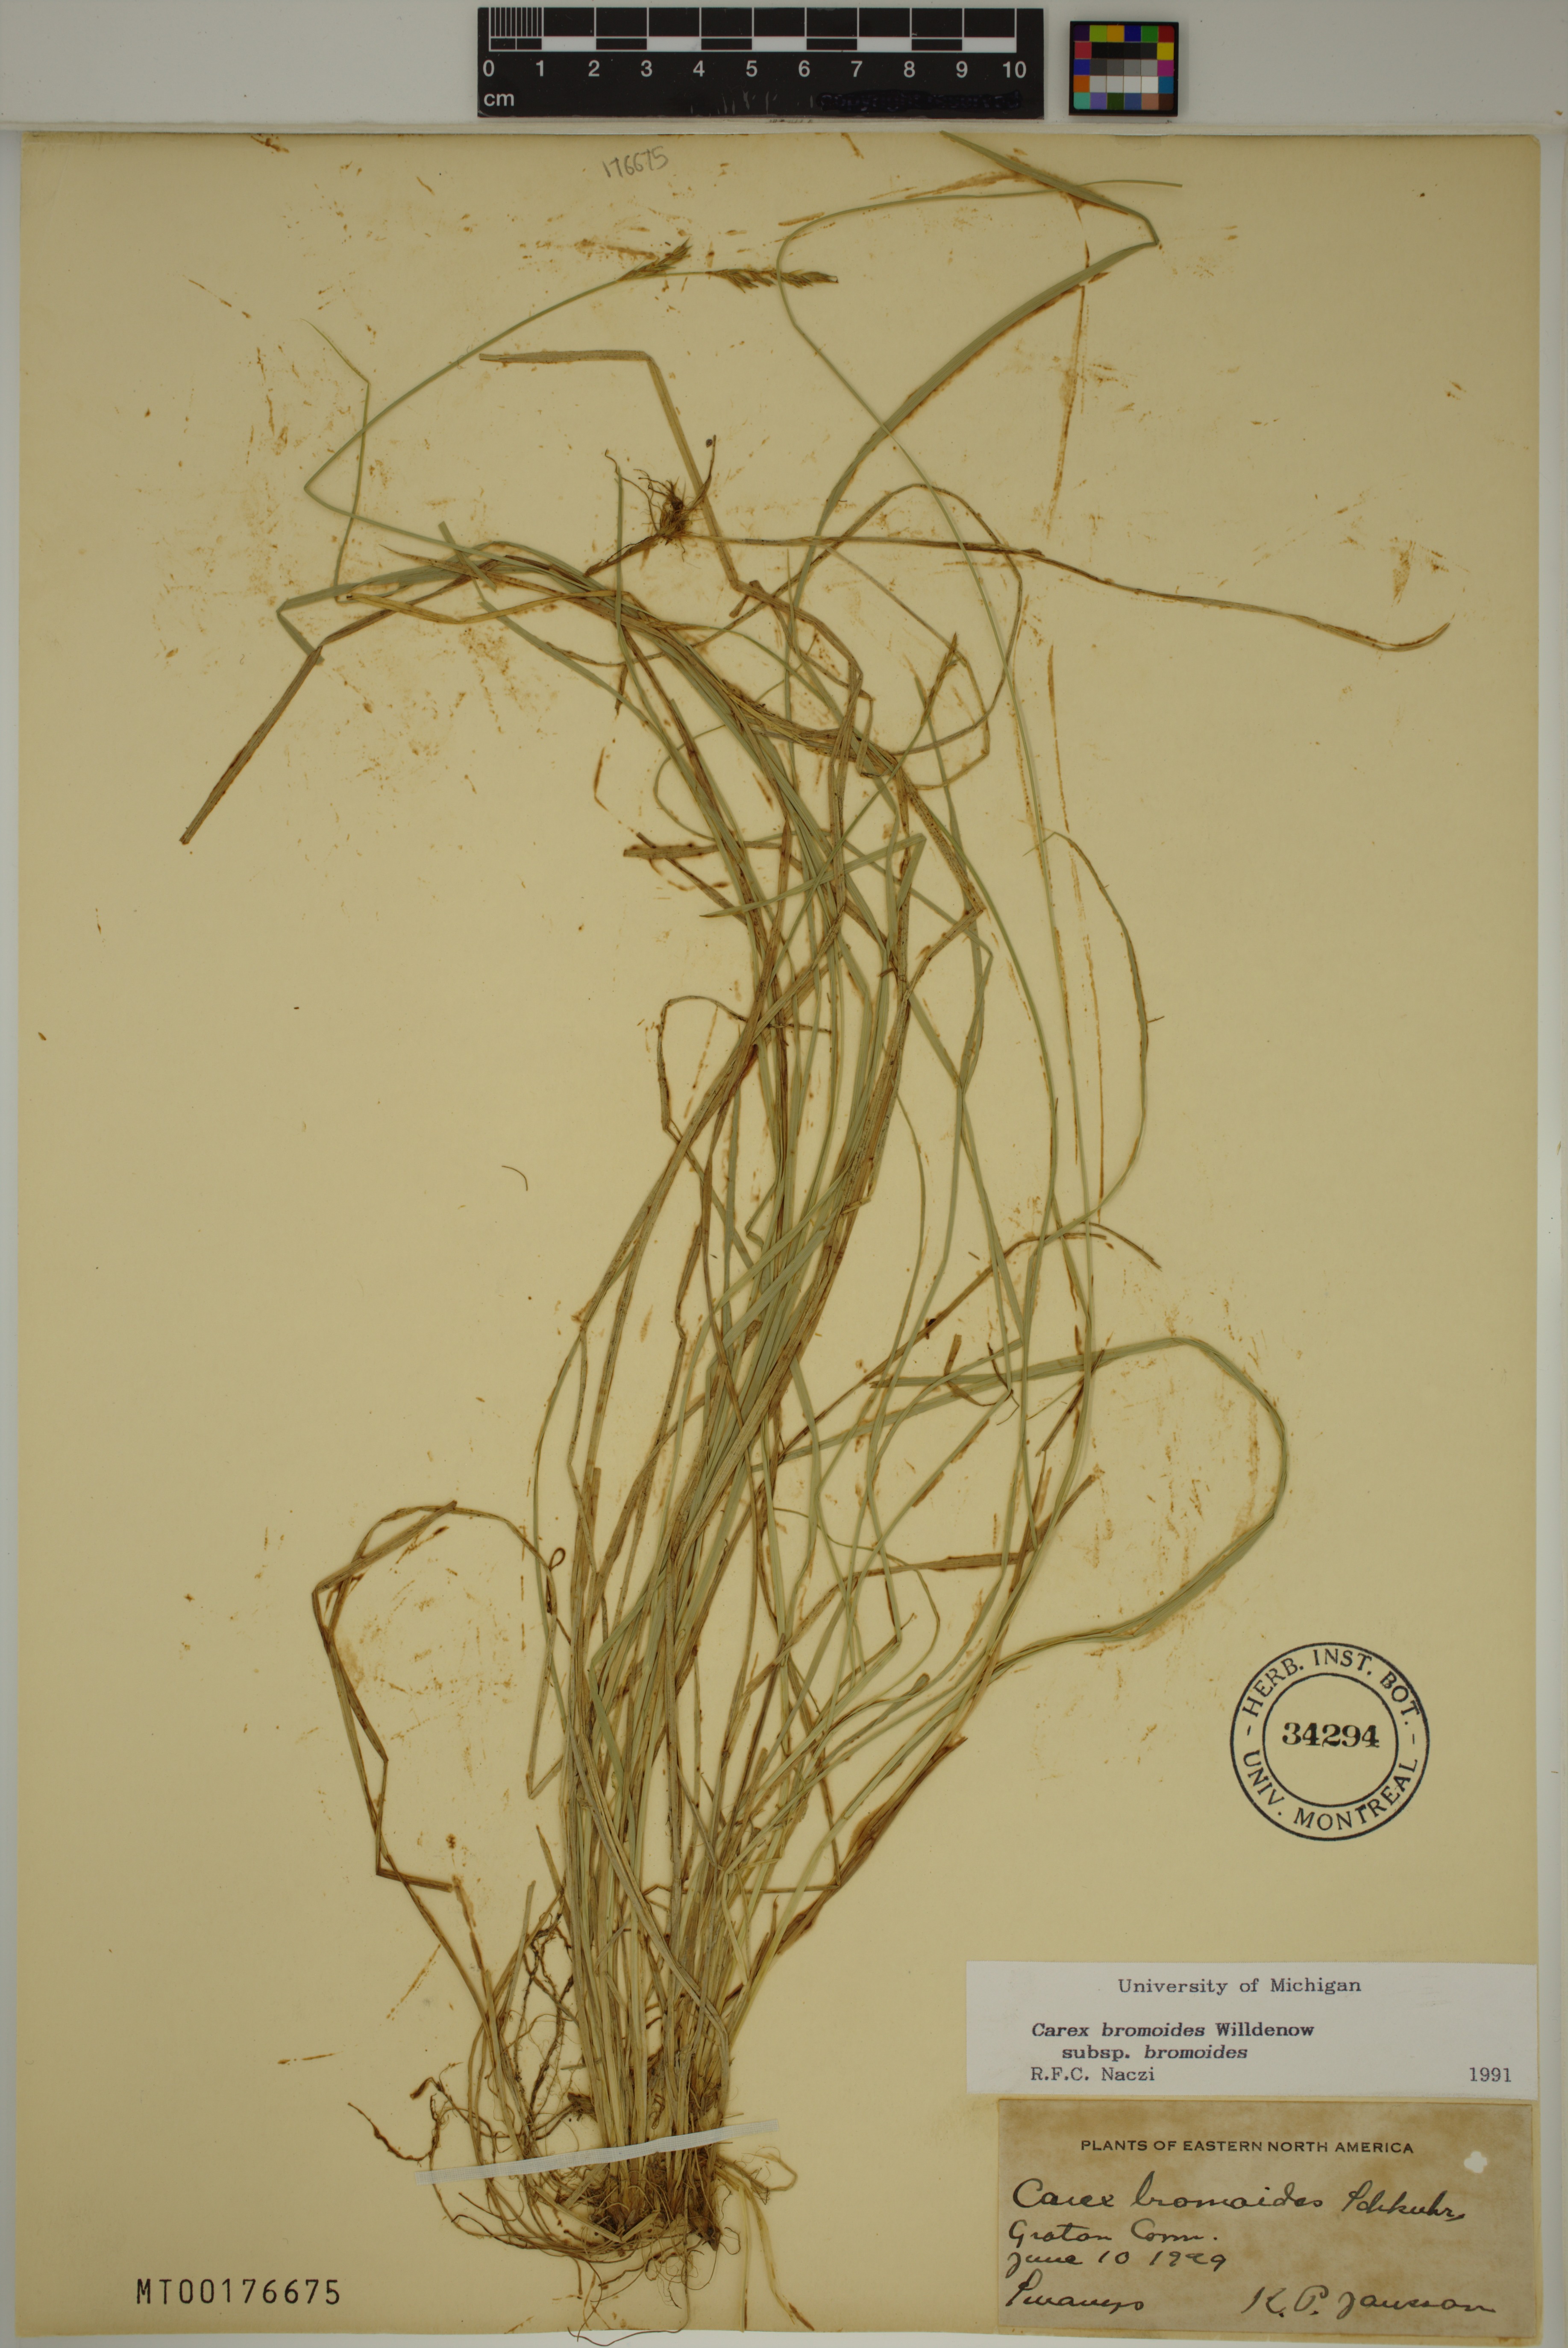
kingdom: Plantae
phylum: Tracheophyta
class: Liliopsida
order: Poales
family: Cyperaceae
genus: Carex
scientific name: Carex bromoides
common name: Brome hummock sedge
